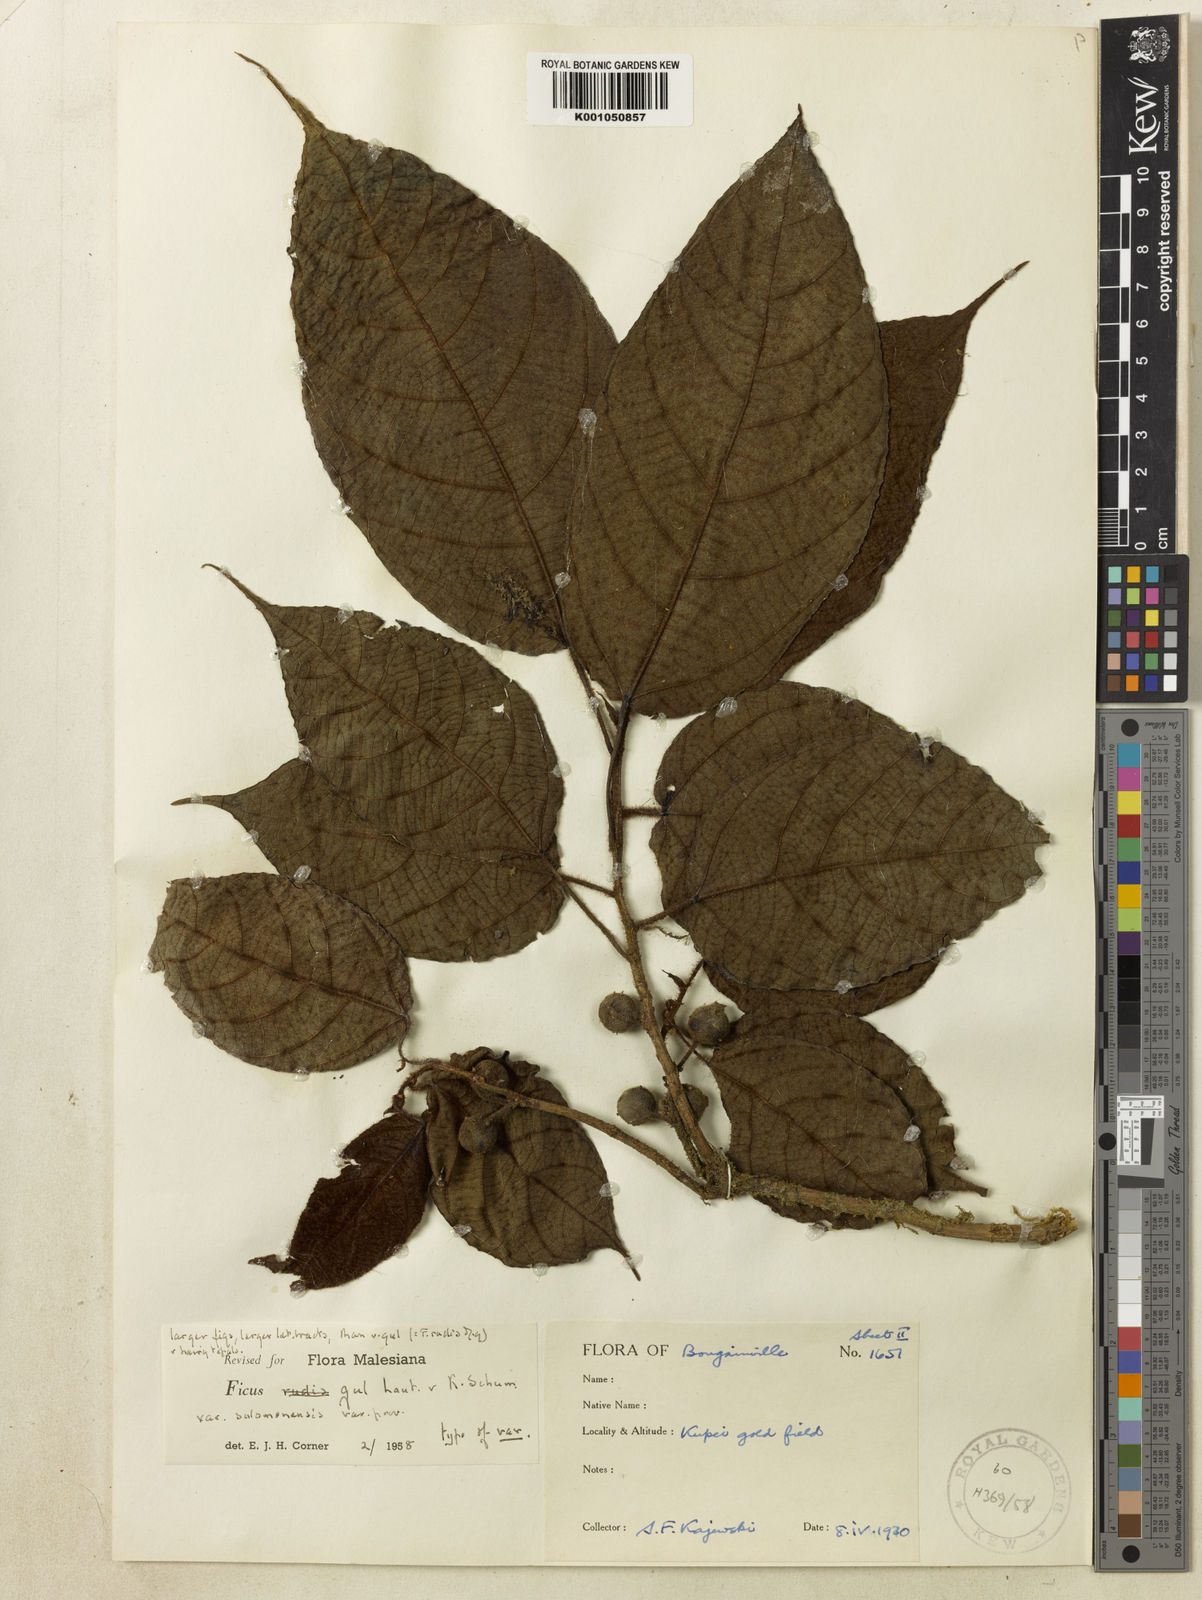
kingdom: Plantae
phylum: Tracheophyta
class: Magnoliopsida
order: Rosales
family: Moraceae
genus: Ficus
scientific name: Ficus gul
